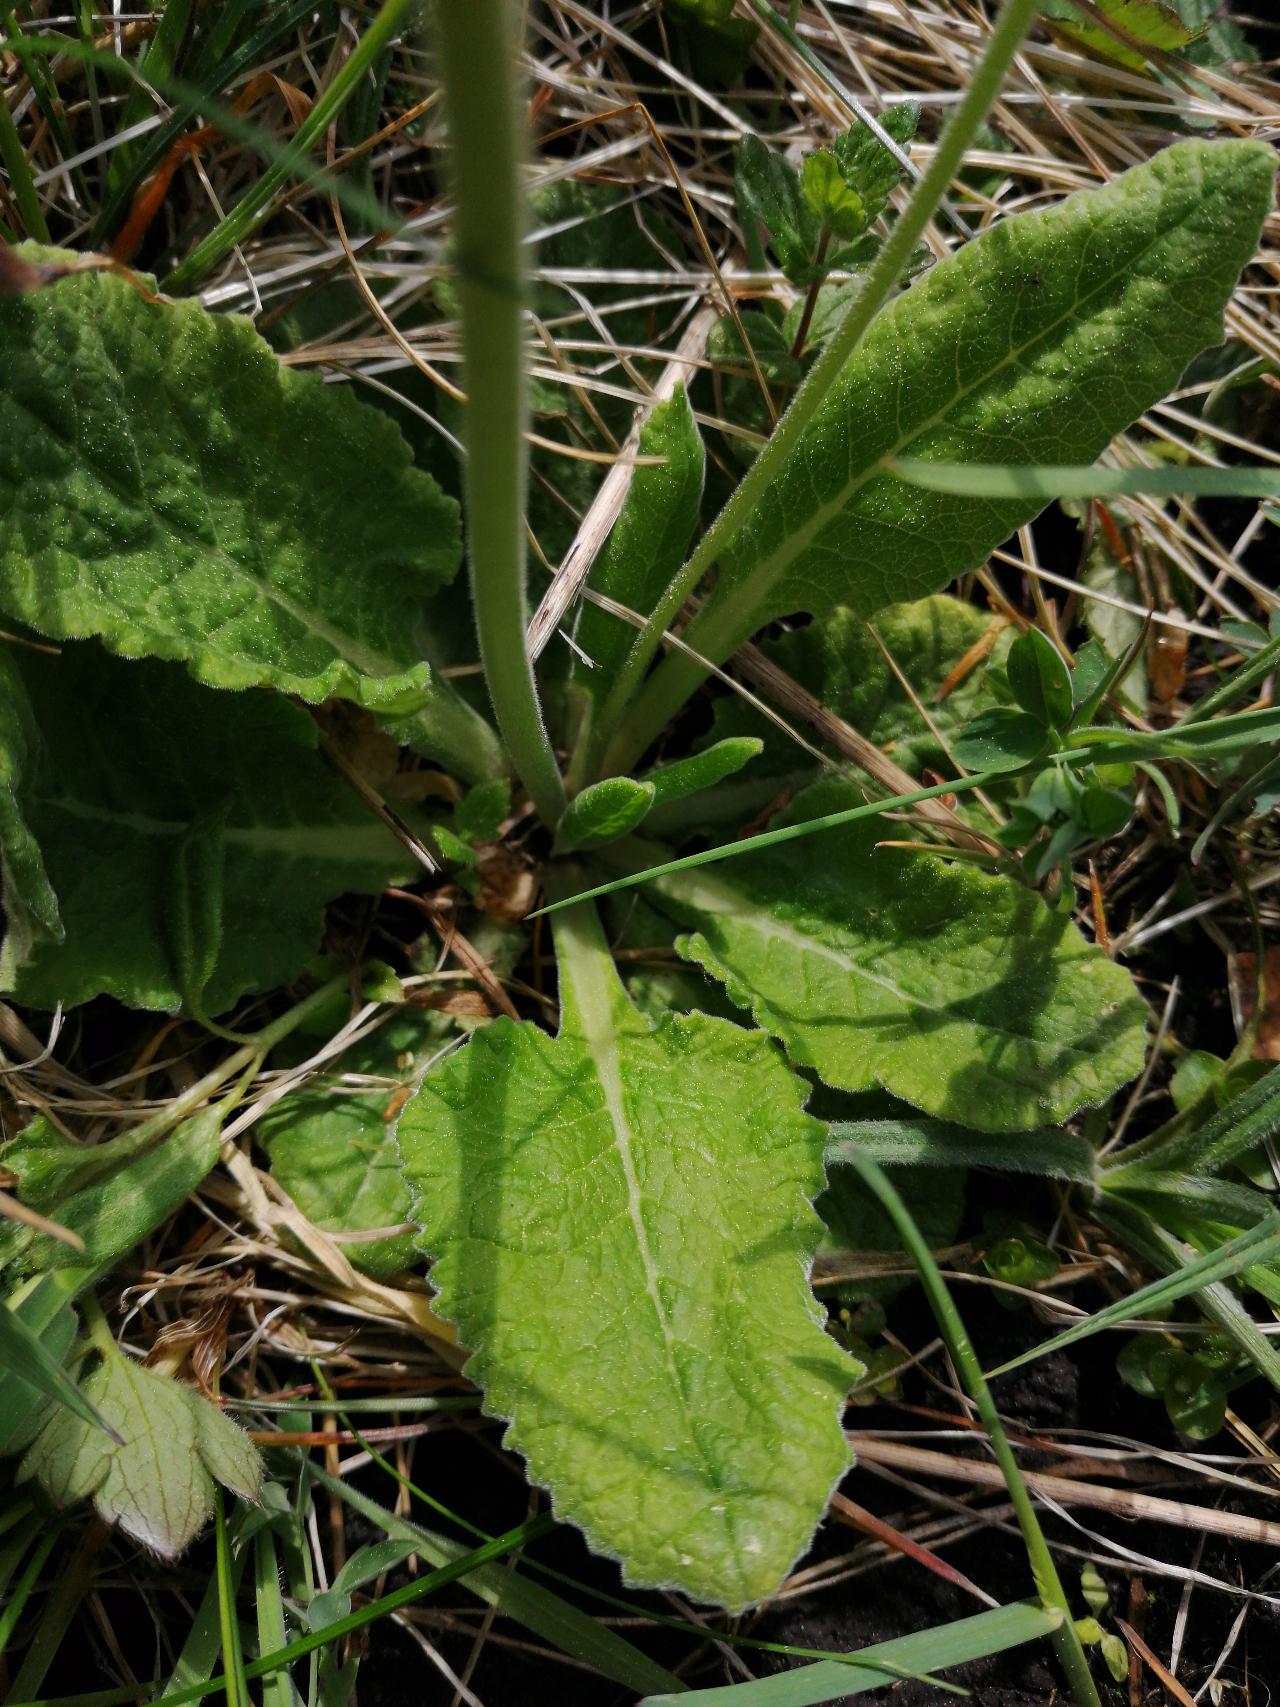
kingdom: Plantae
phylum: Tracheophyta
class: Magnoliopsida
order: Ericales
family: Primulaceae
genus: Primula
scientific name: Primula veris
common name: Hulkravet kodriver
